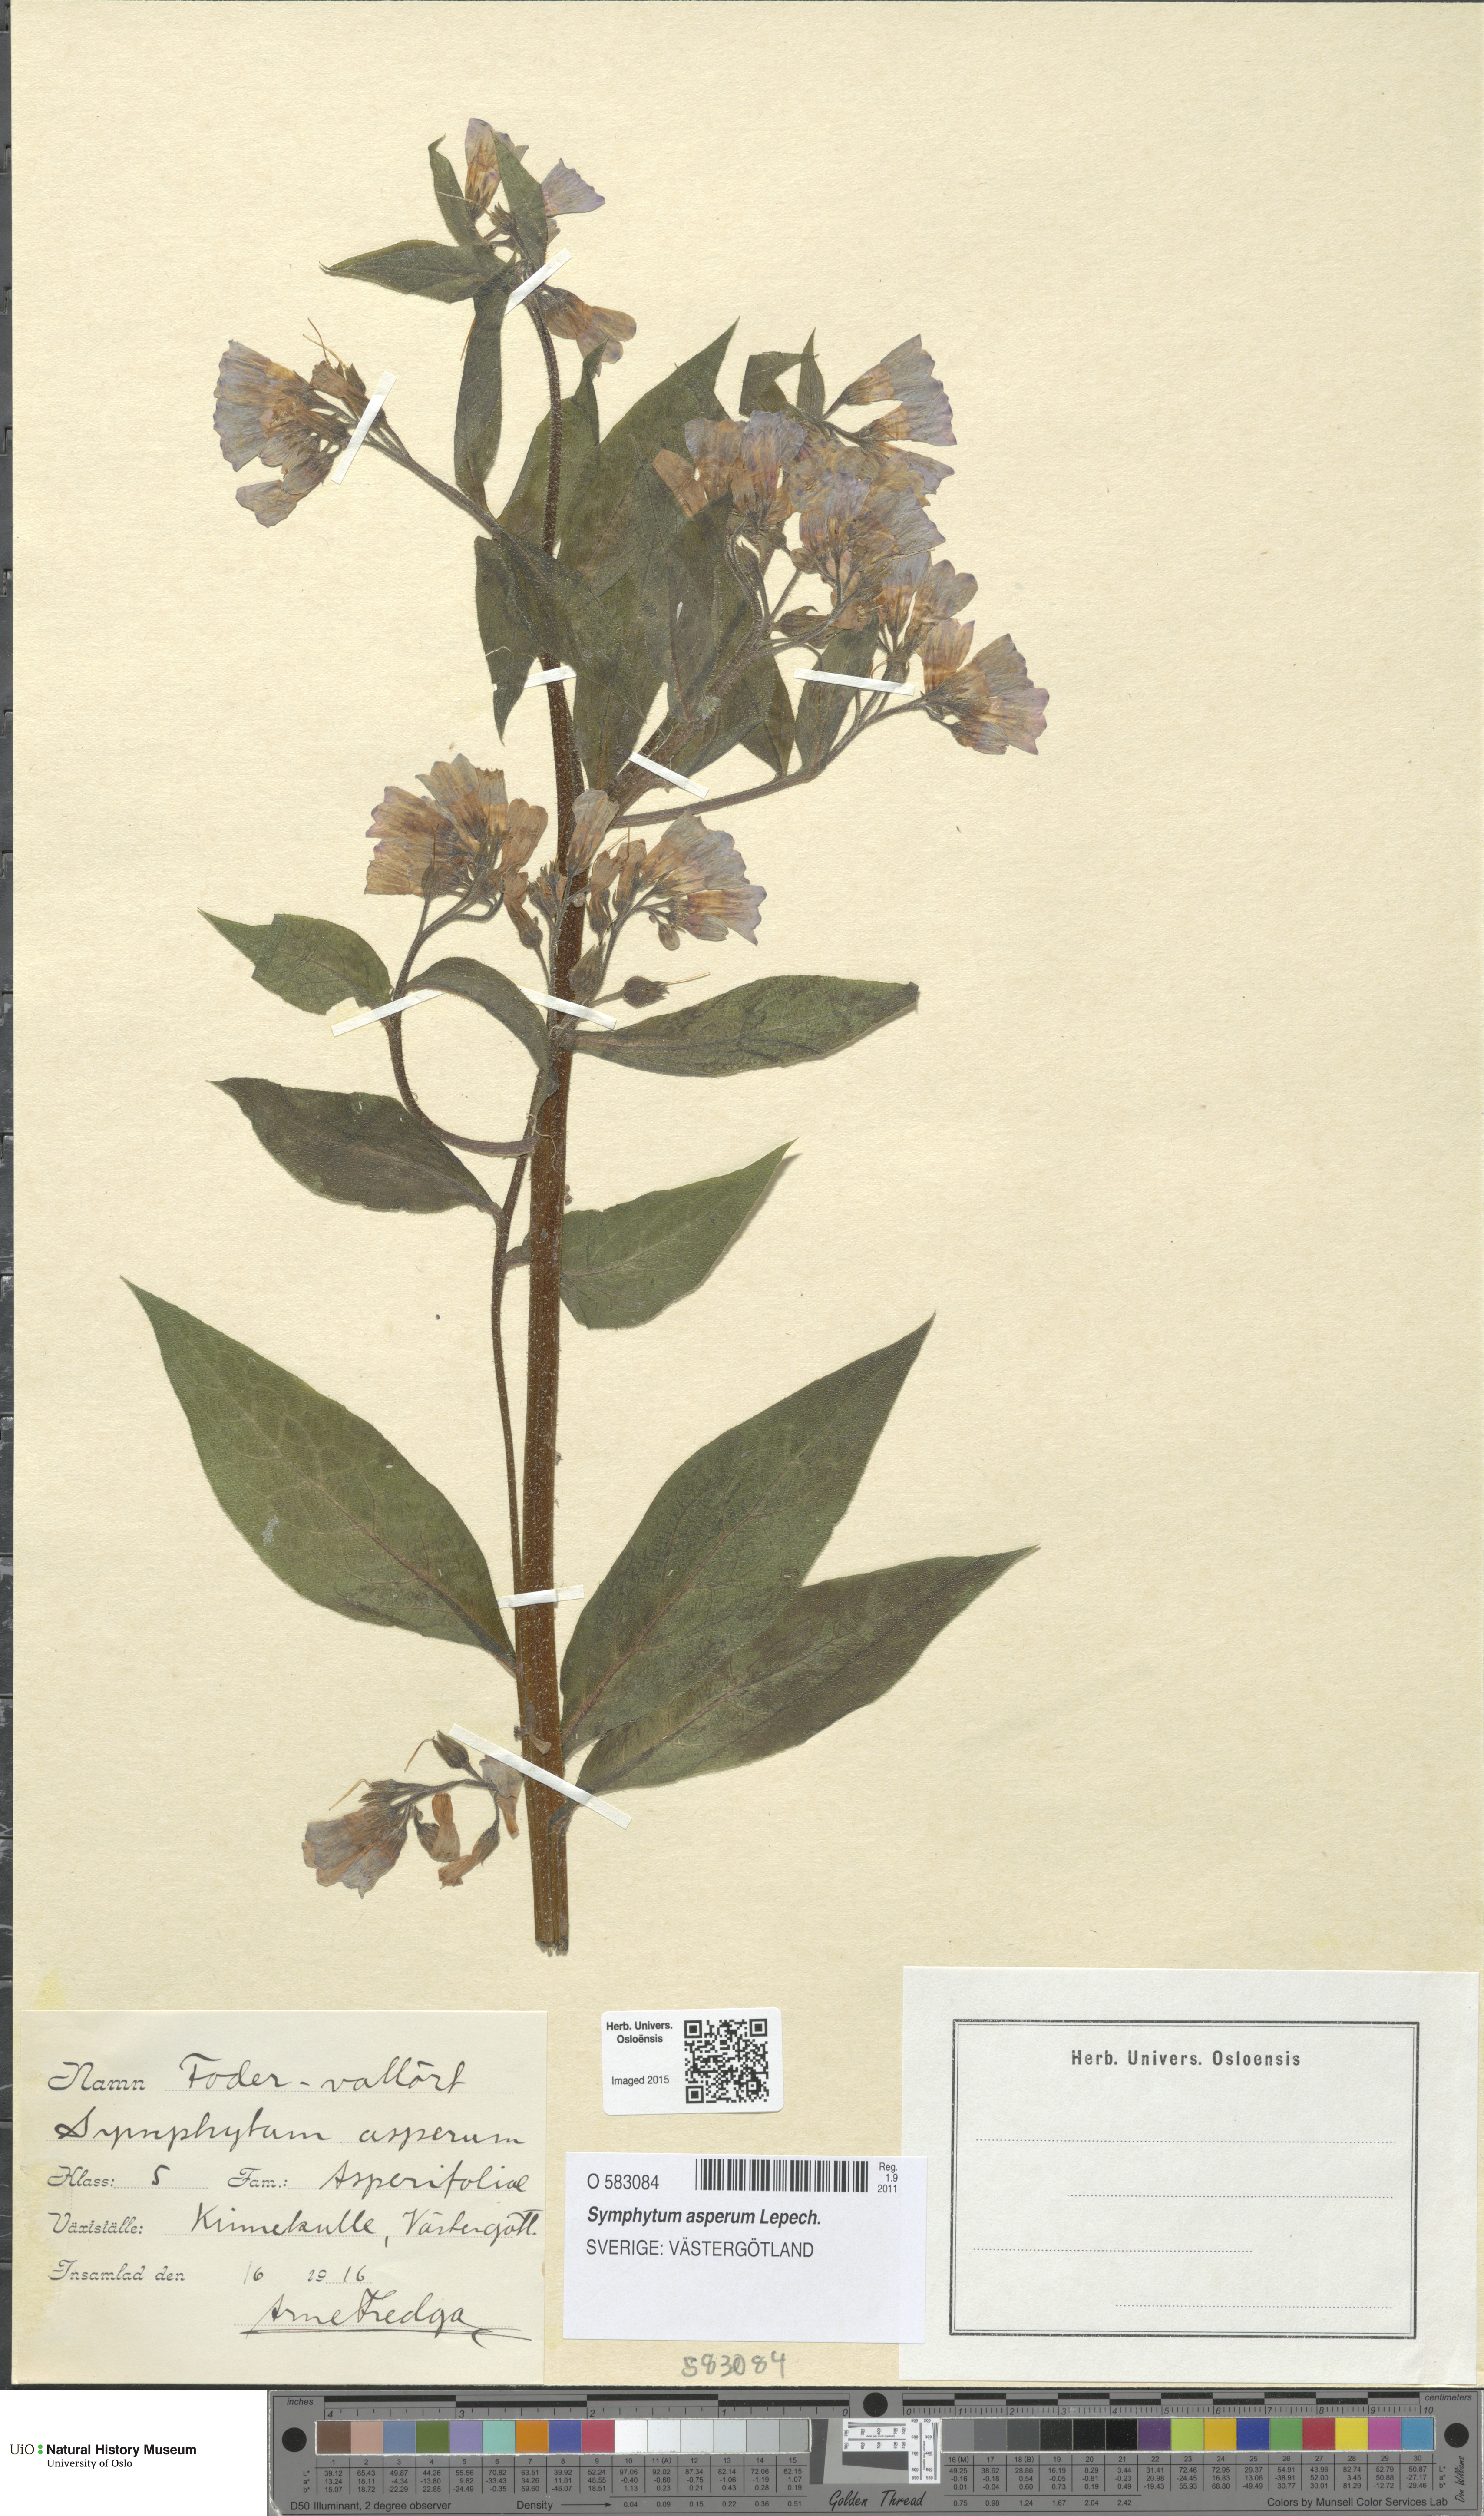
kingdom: Plantae
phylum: Tracheophyta
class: Magnoliopsida
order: Boraginales
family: Boraginaceae
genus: Symphytum
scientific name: Symphytum asperum
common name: Prickly comfrey
